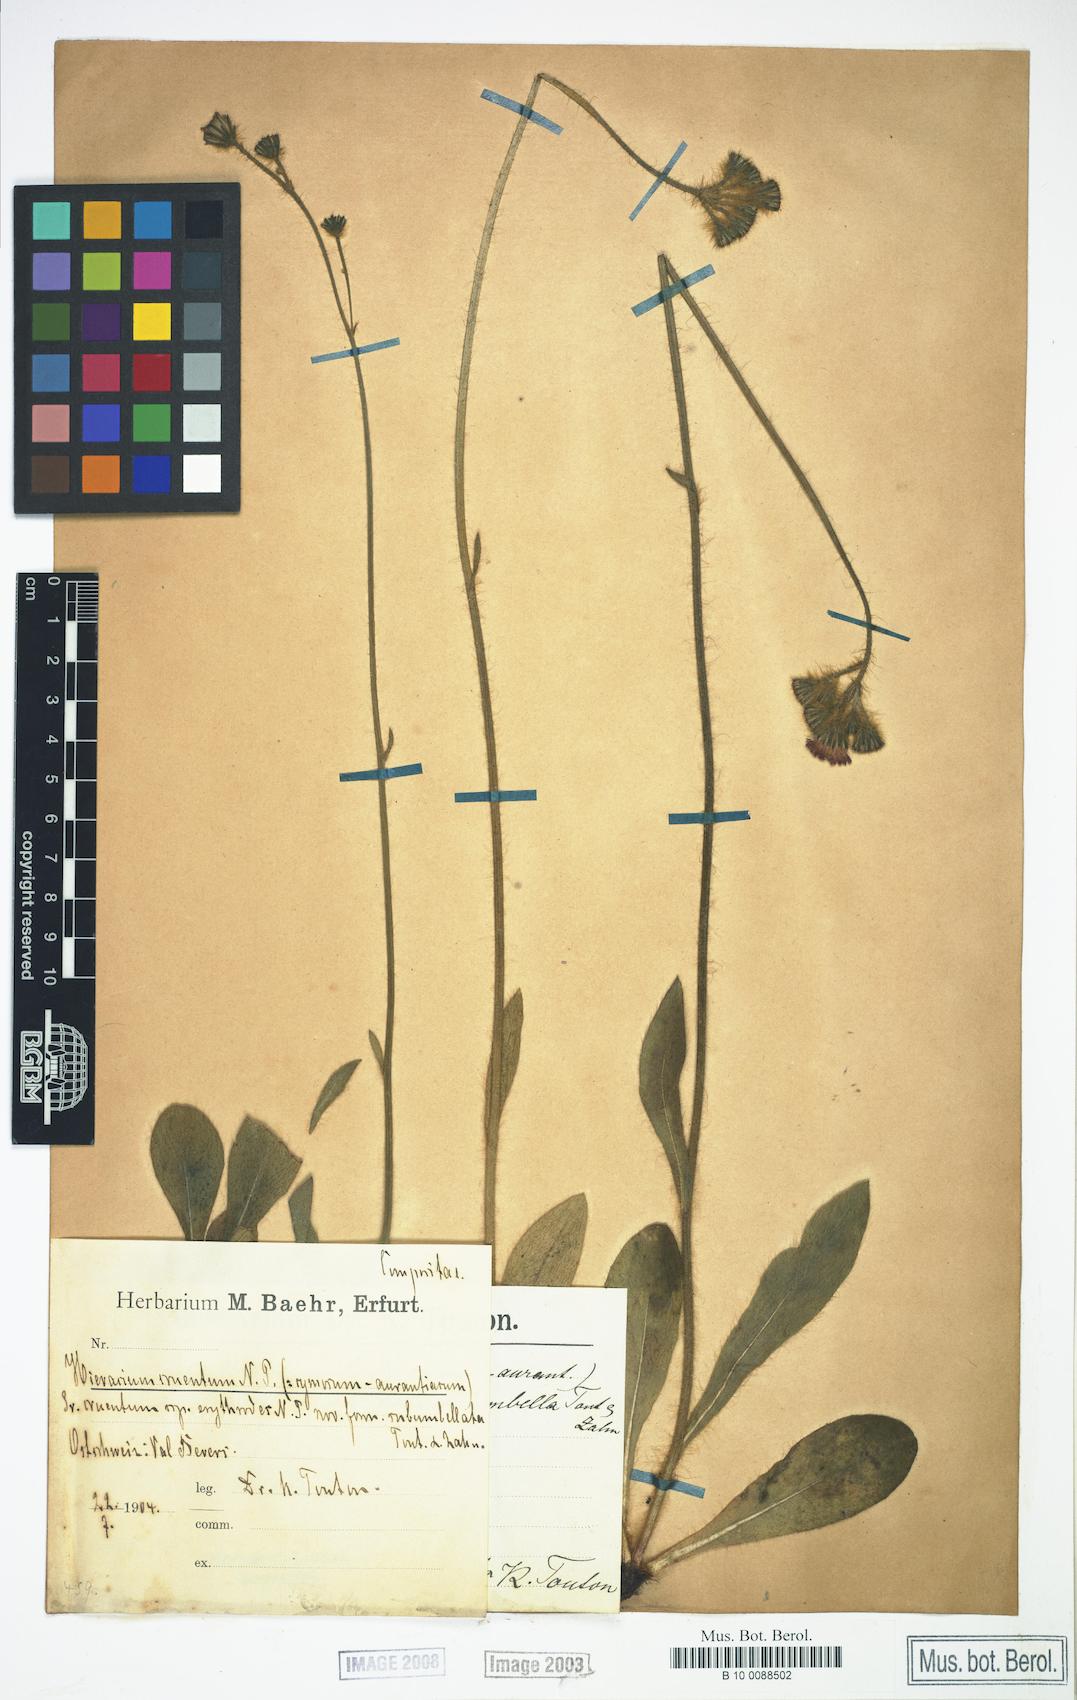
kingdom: Plantae
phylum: Tracheophyta
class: Magnoliopsida
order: Asterales
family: Asteraceae
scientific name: Asteraceae
